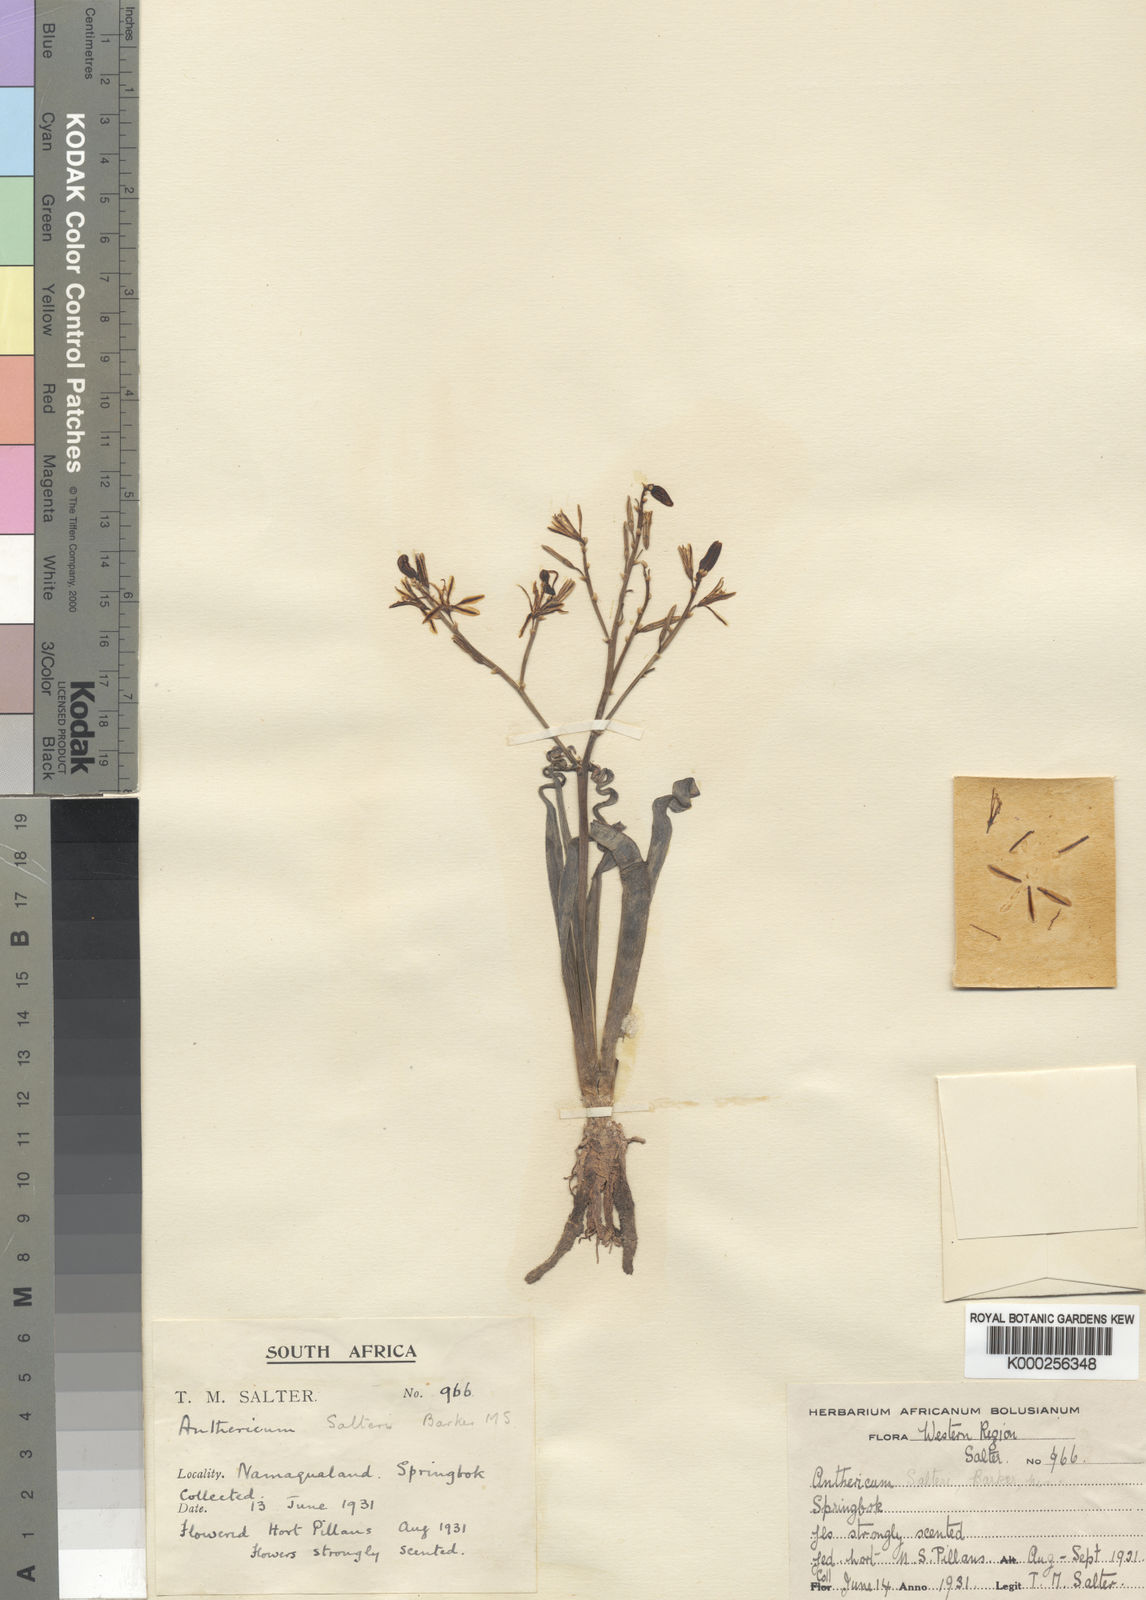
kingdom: Plantae
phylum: Tracheophyta
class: Liliopsida
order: Asparagales
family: Asphodelaceae
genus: Trachyandra
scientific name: Trachyandra tortilis
